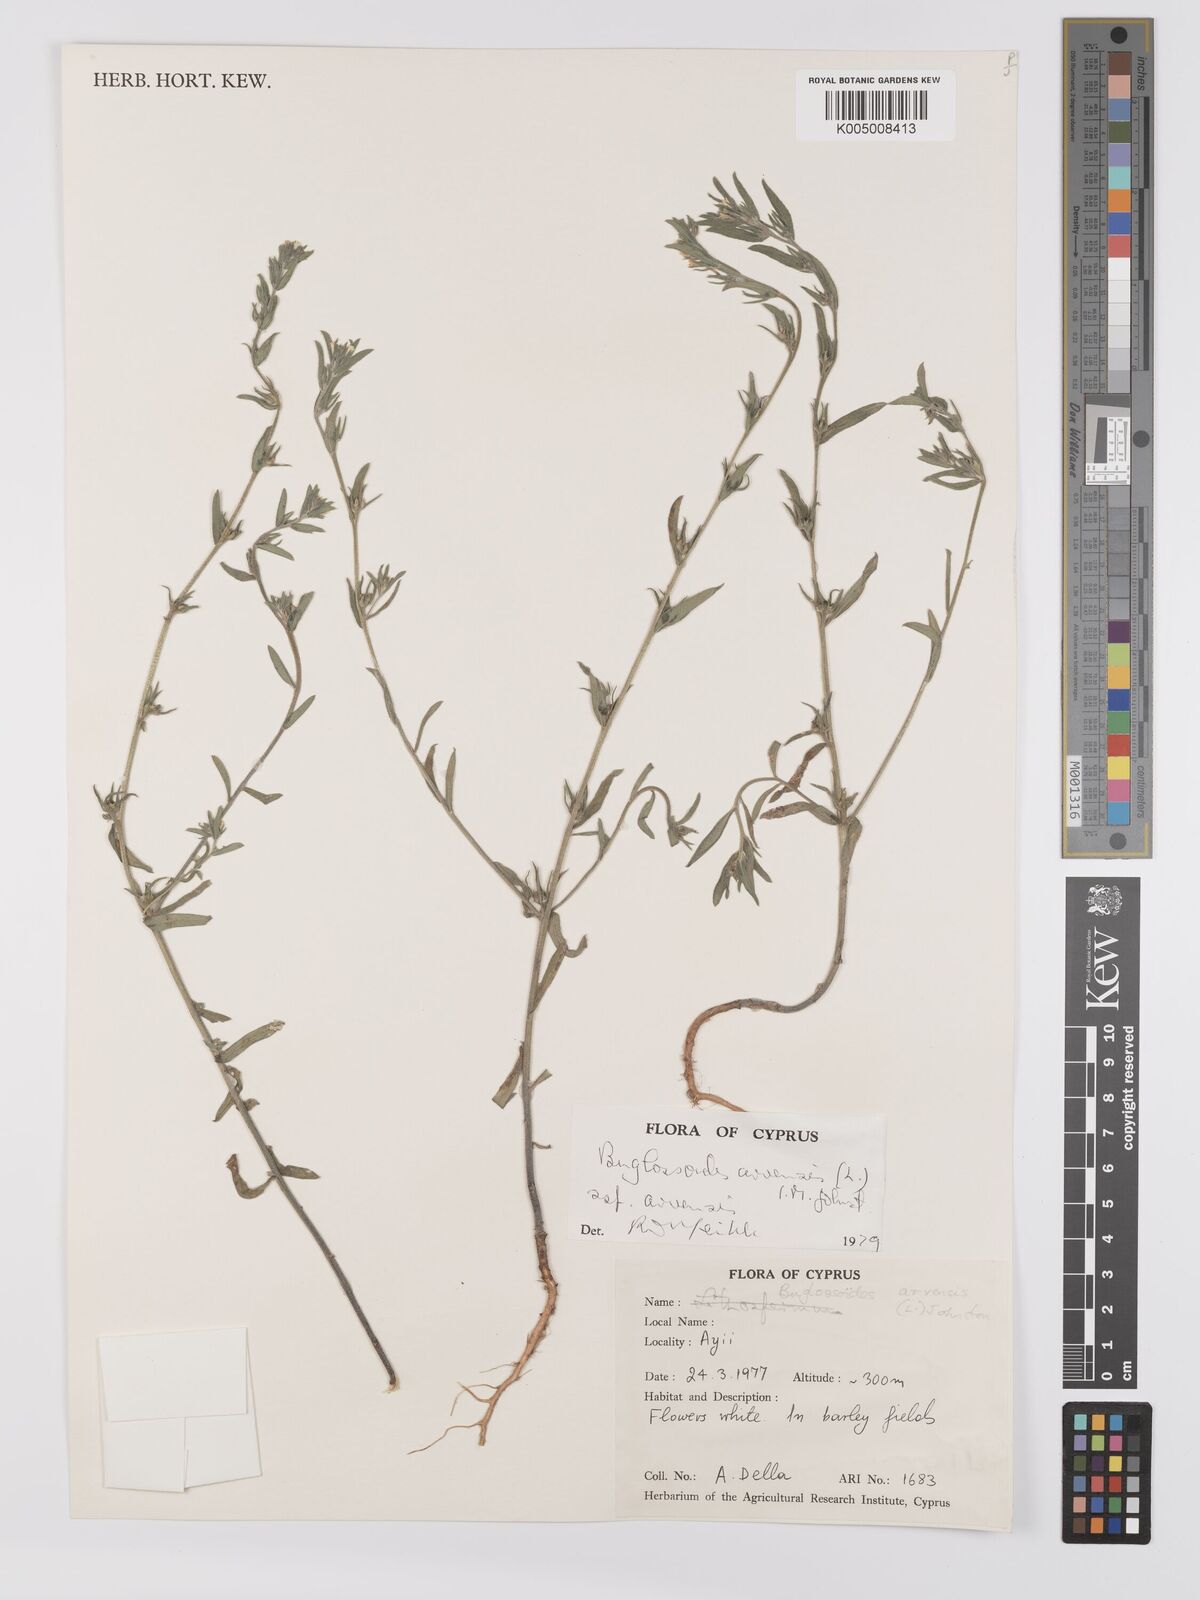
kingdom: Plantae
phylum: Tracheophyta
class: Magnoliopsida
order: Boraginales
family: Boraginaceae
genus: Buglossoides
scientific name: Buglossoides arvensis
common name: Corn gromwell
